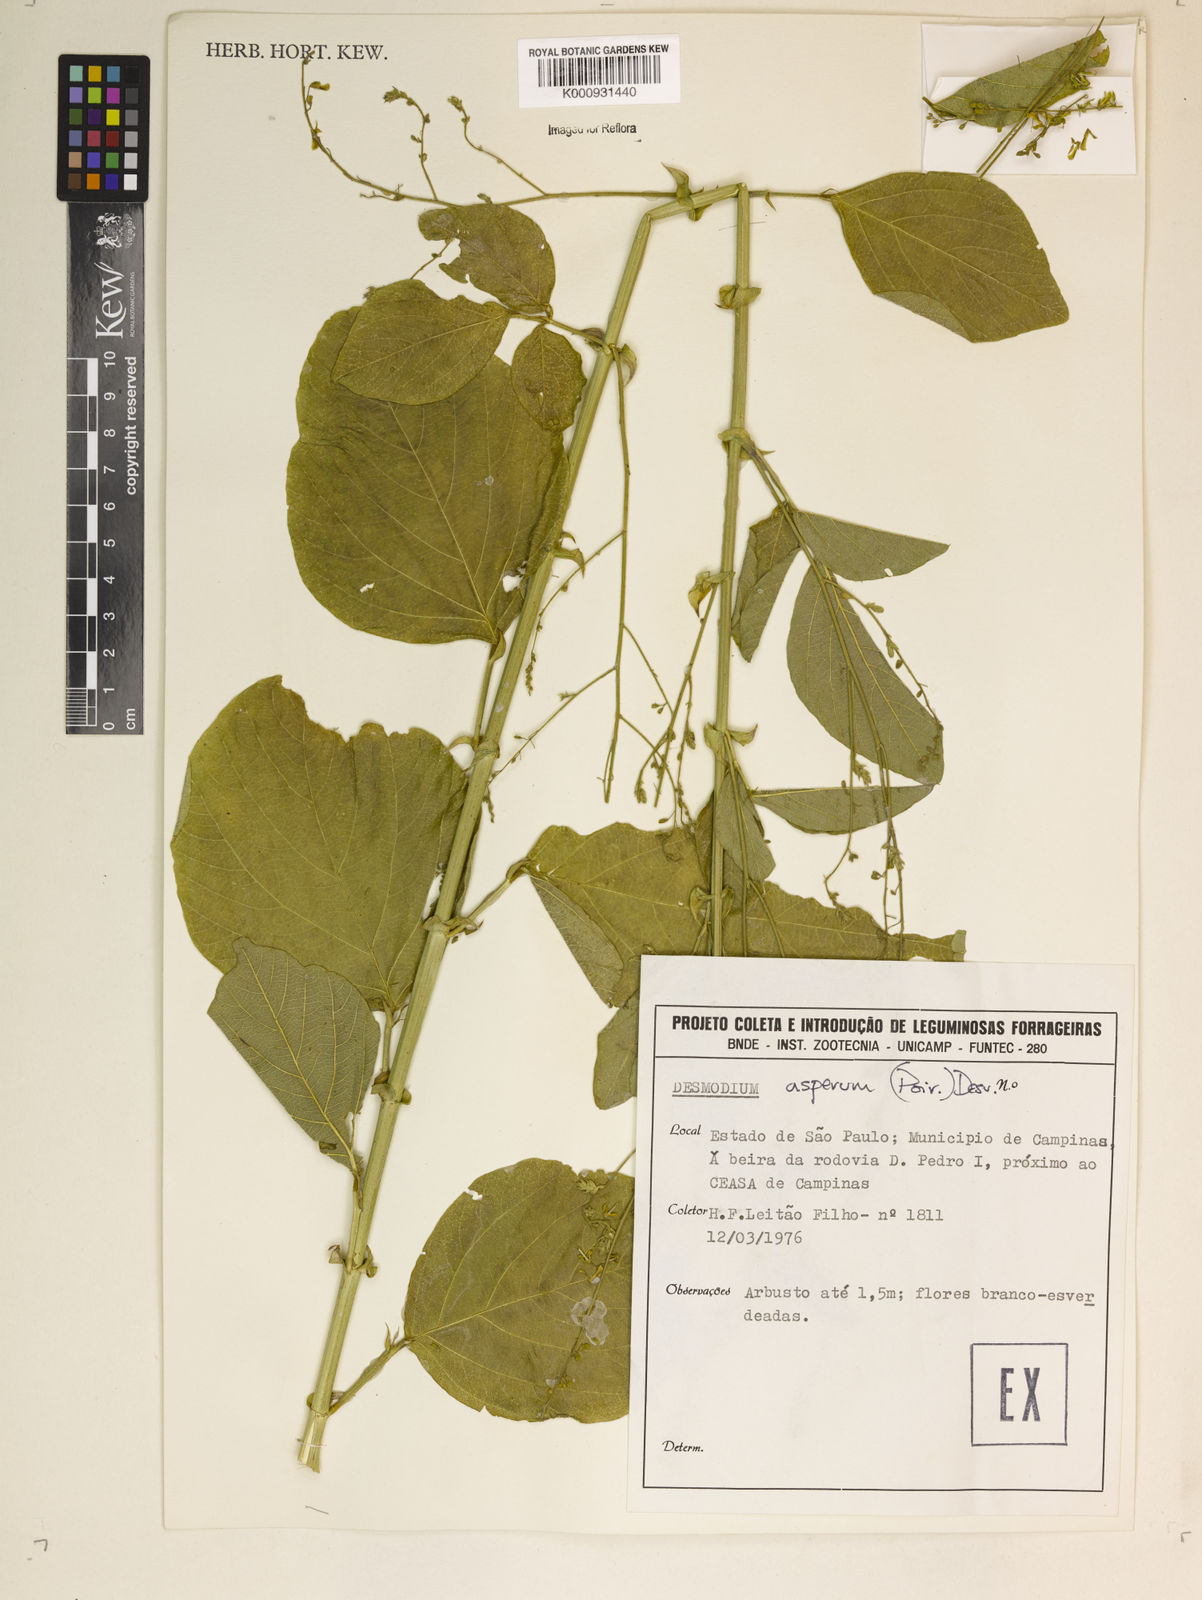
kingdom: Plantae
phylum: Tracheophyta
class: Magnoliopsida
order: Fabales
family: Fabaceae
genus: Desmodium
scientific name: Desmodium distortum
